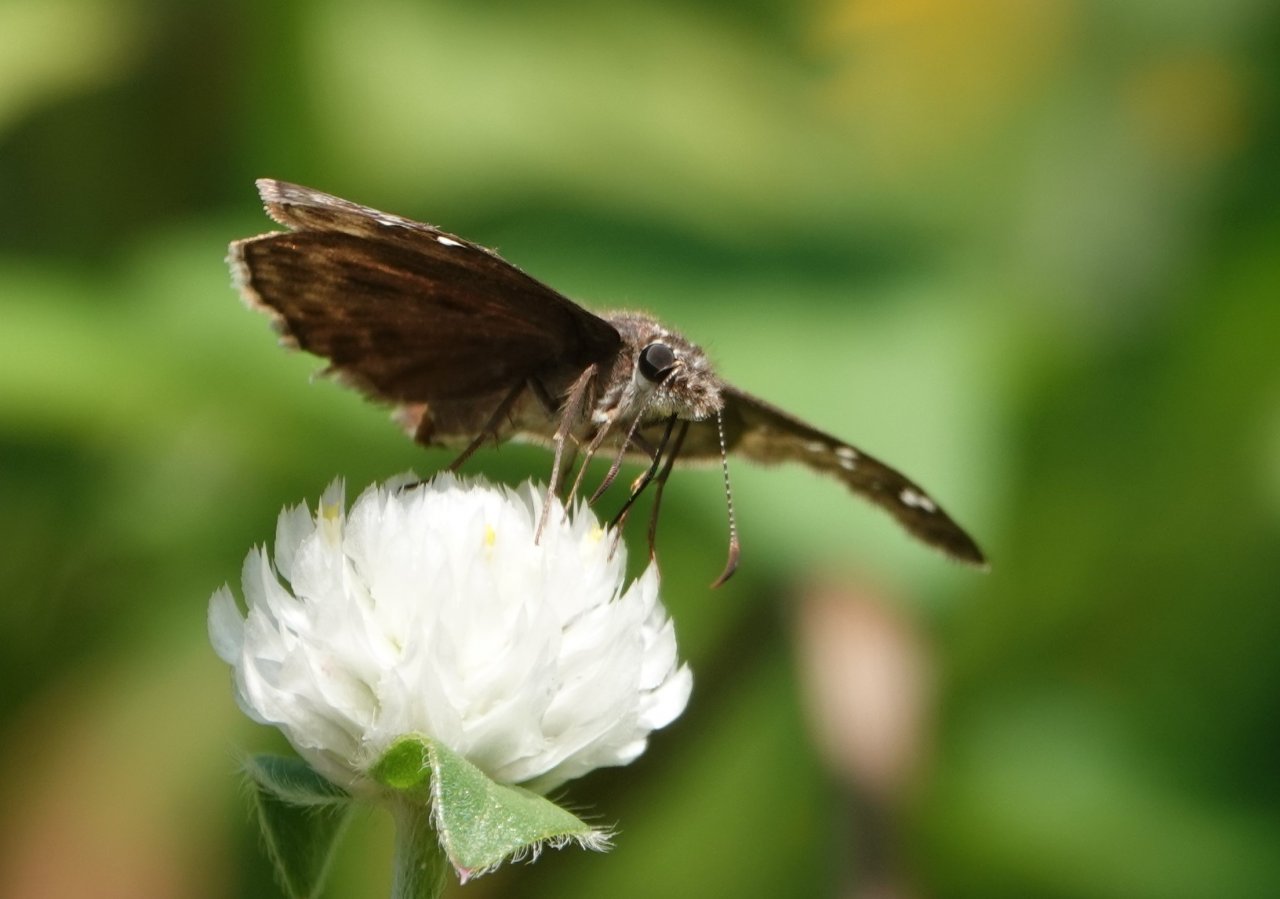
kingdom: Animalia
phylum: Arthropoda
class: Insecta
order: Lepidoptera
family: Hesperiidae
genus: Gesta
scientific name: Gesta
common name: Horace's Duskywing
